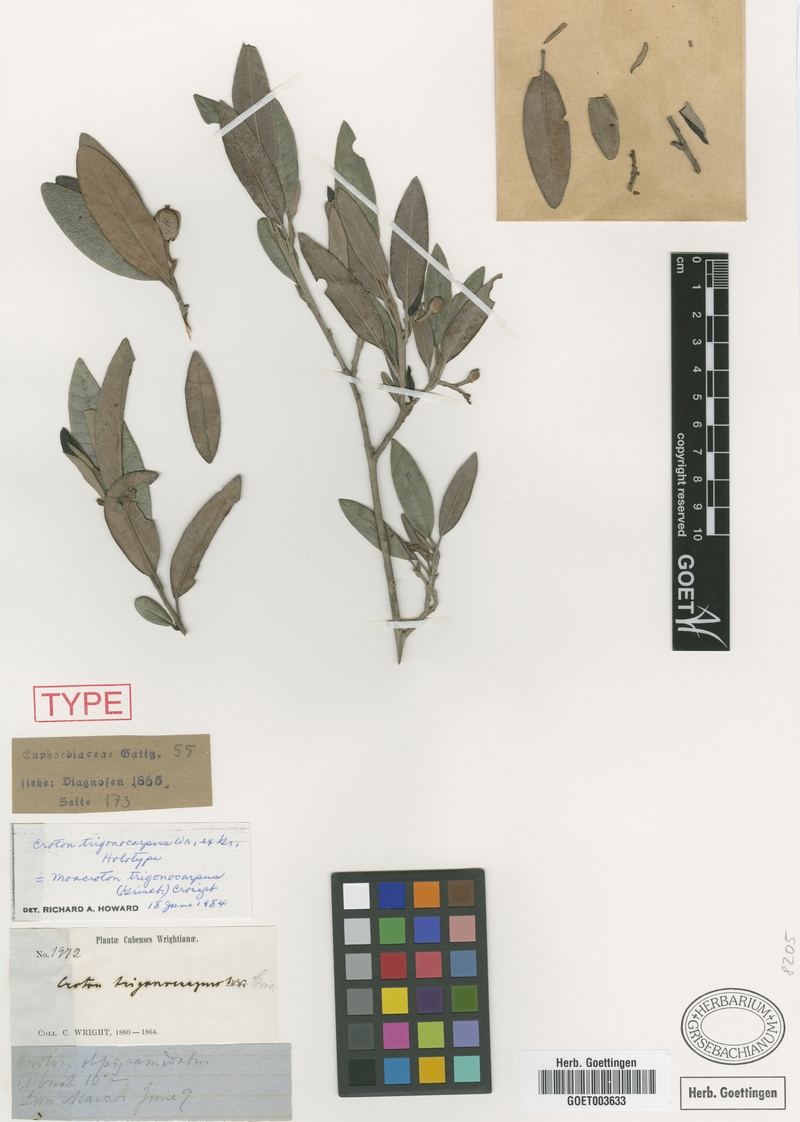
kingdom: Plantae
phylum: Tracheophyta
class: Magnoliopsida
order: Malpighiales
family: Euphorbiaceae
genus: Croton
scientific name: Croton trigonocarpus
